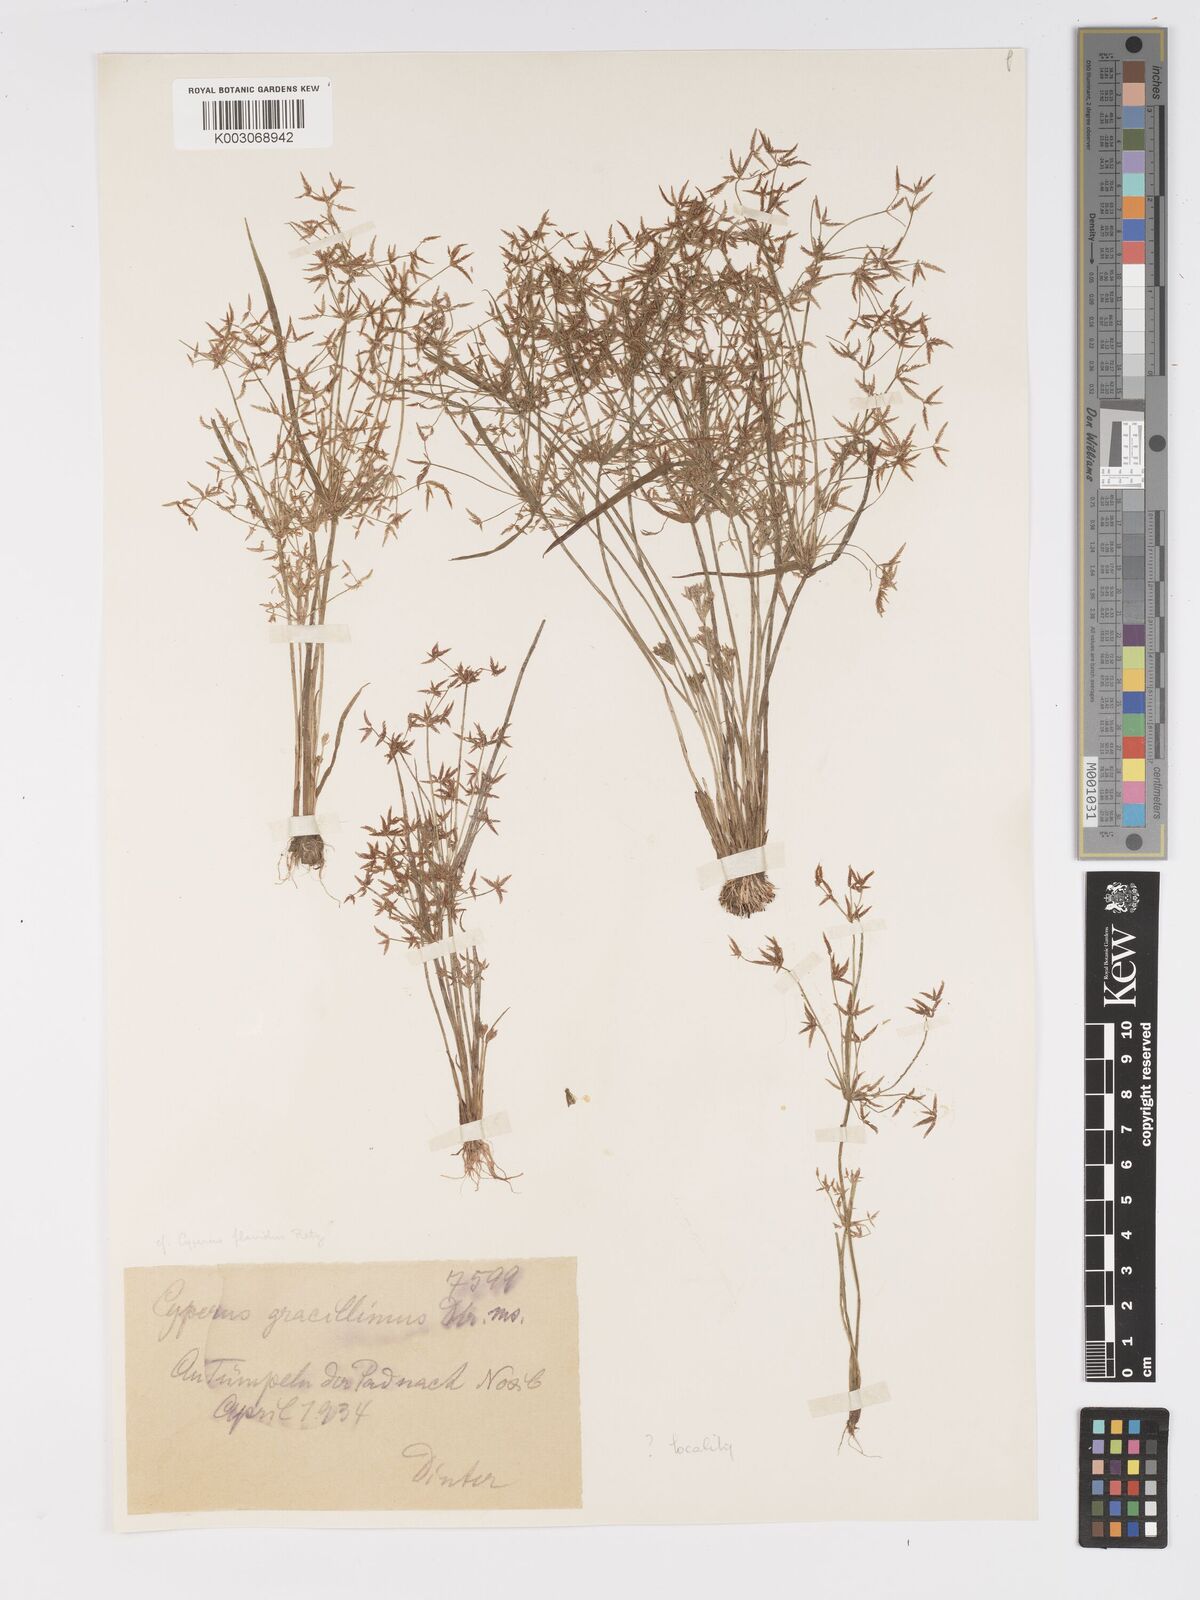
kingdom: Plantae
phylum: Tracheophyta
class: Liliopsida
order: Poales
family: Cyperaceae
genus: Cyperus
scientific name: Cyperus tenuispica
